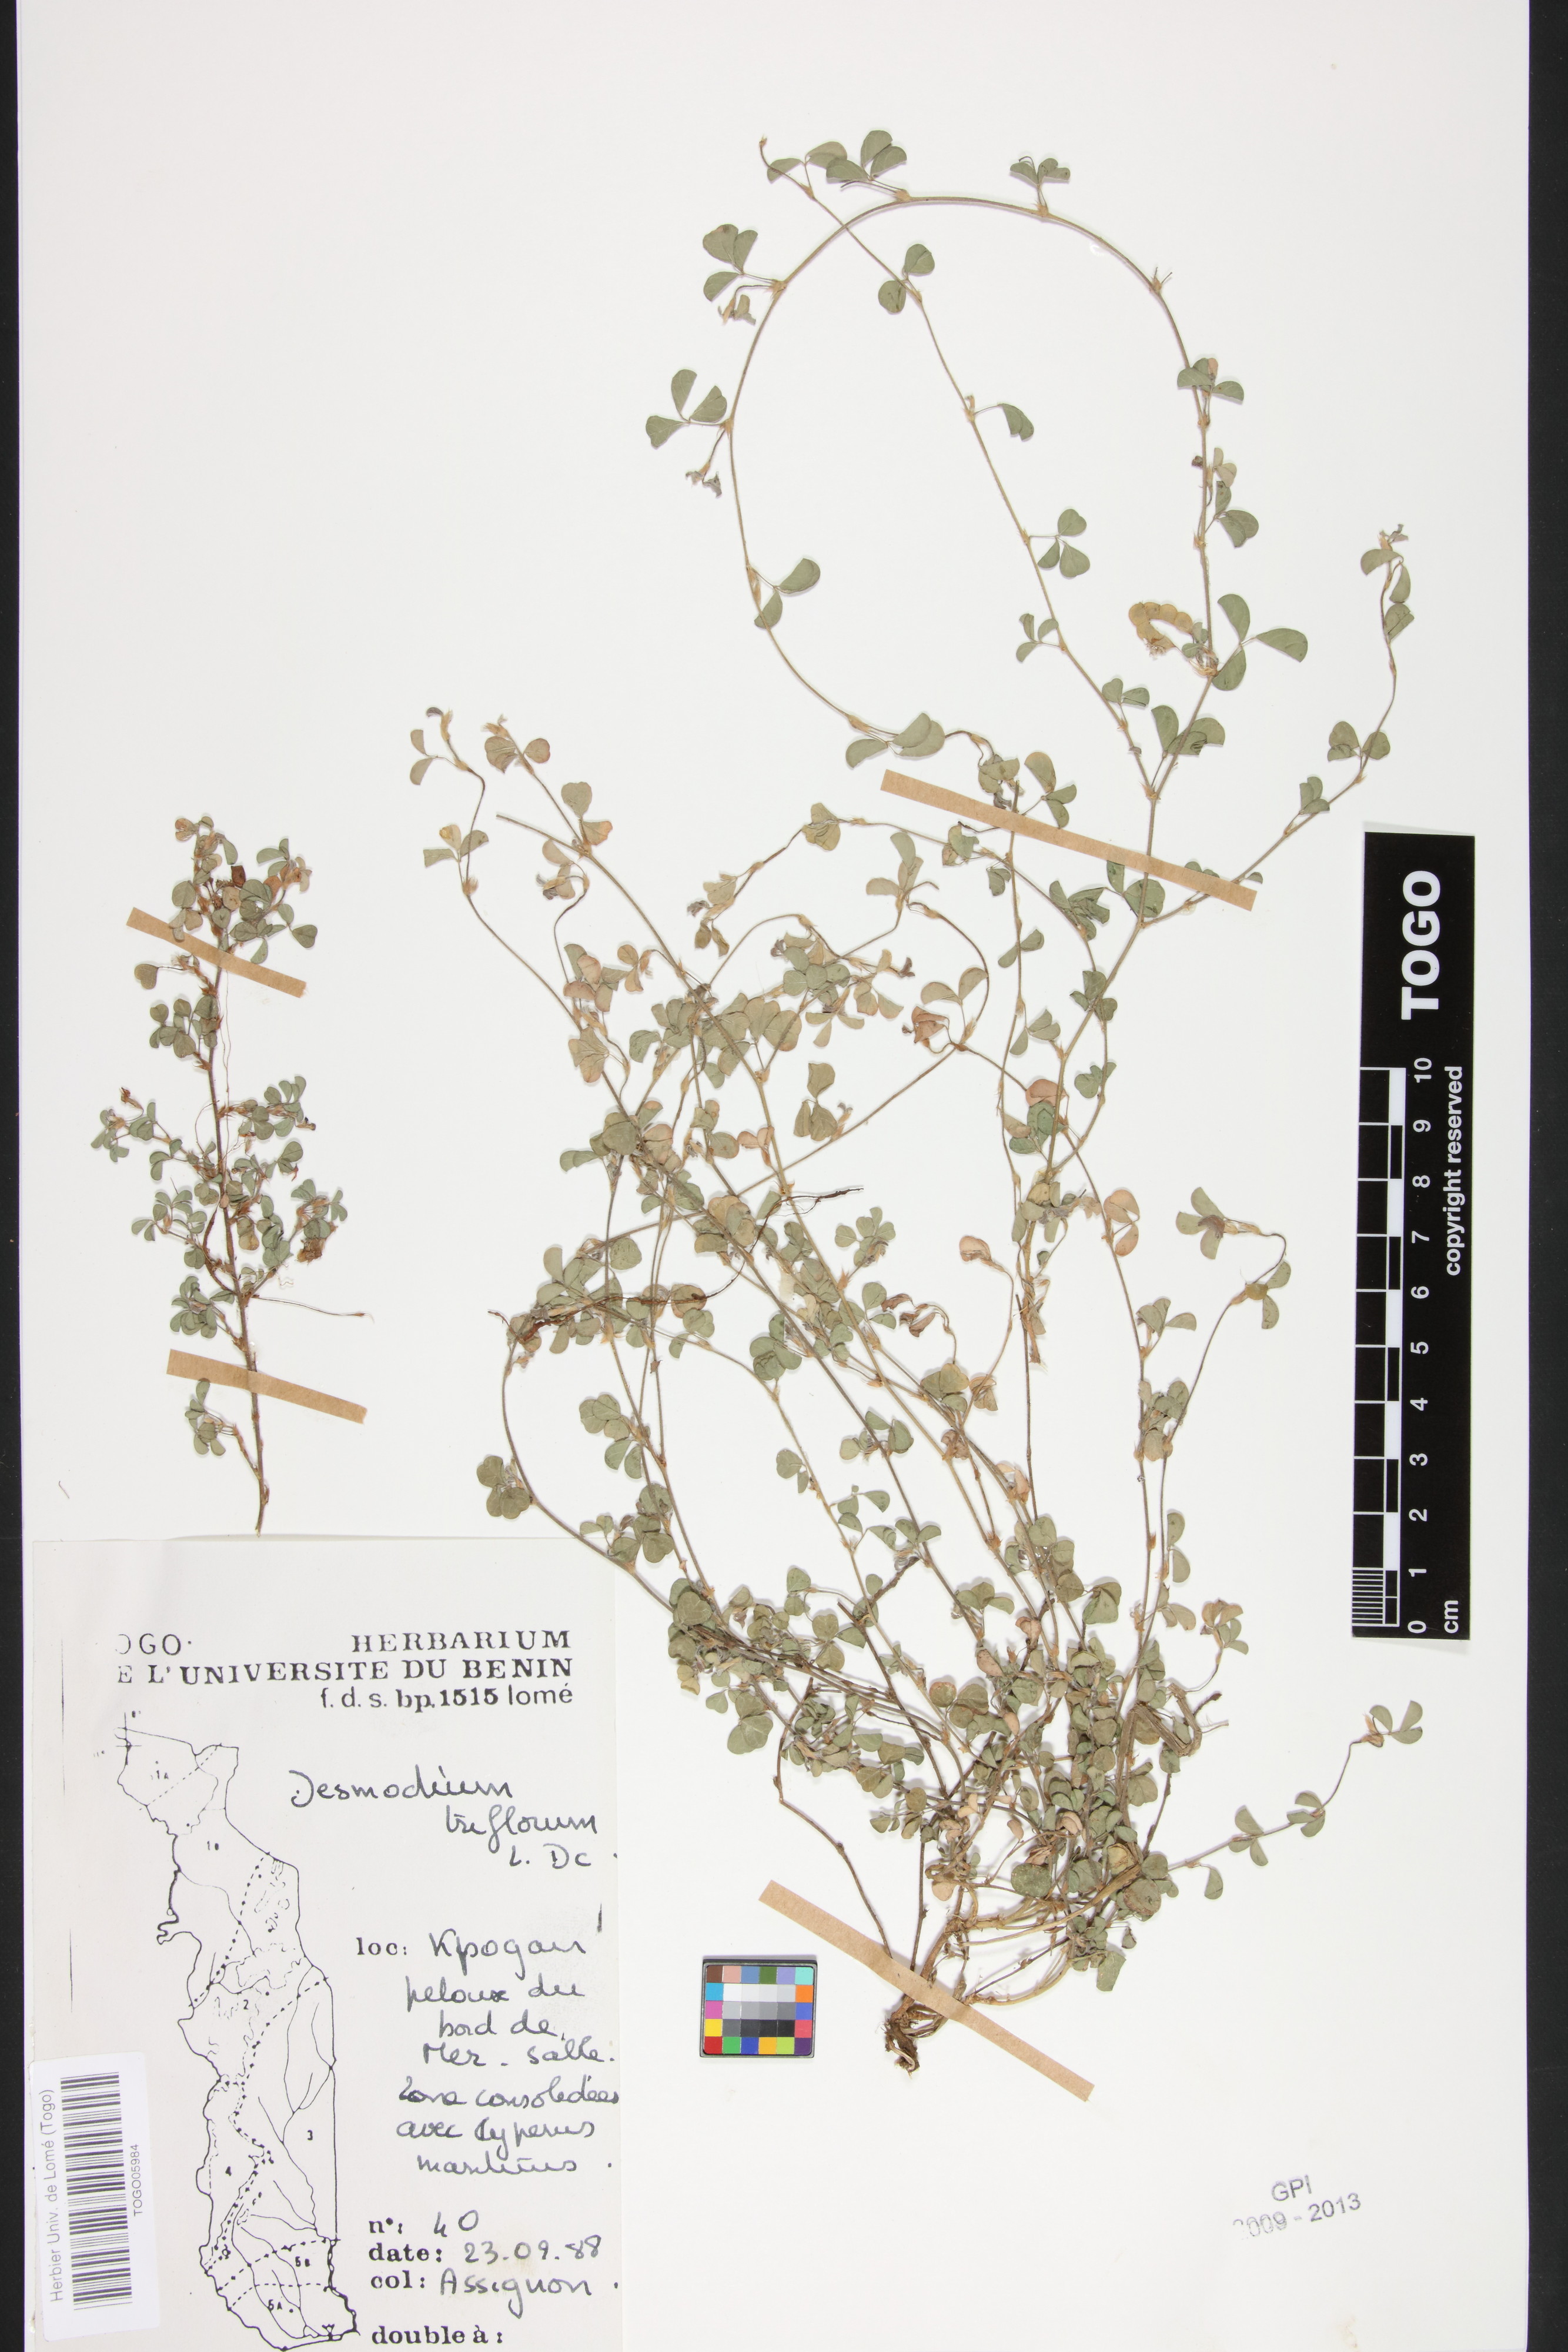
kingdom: Plantae
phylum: Tracheophyta
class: Magnoliopsida
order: Fabales
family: Fabaceae
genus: Grona
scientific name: Grona triflora
